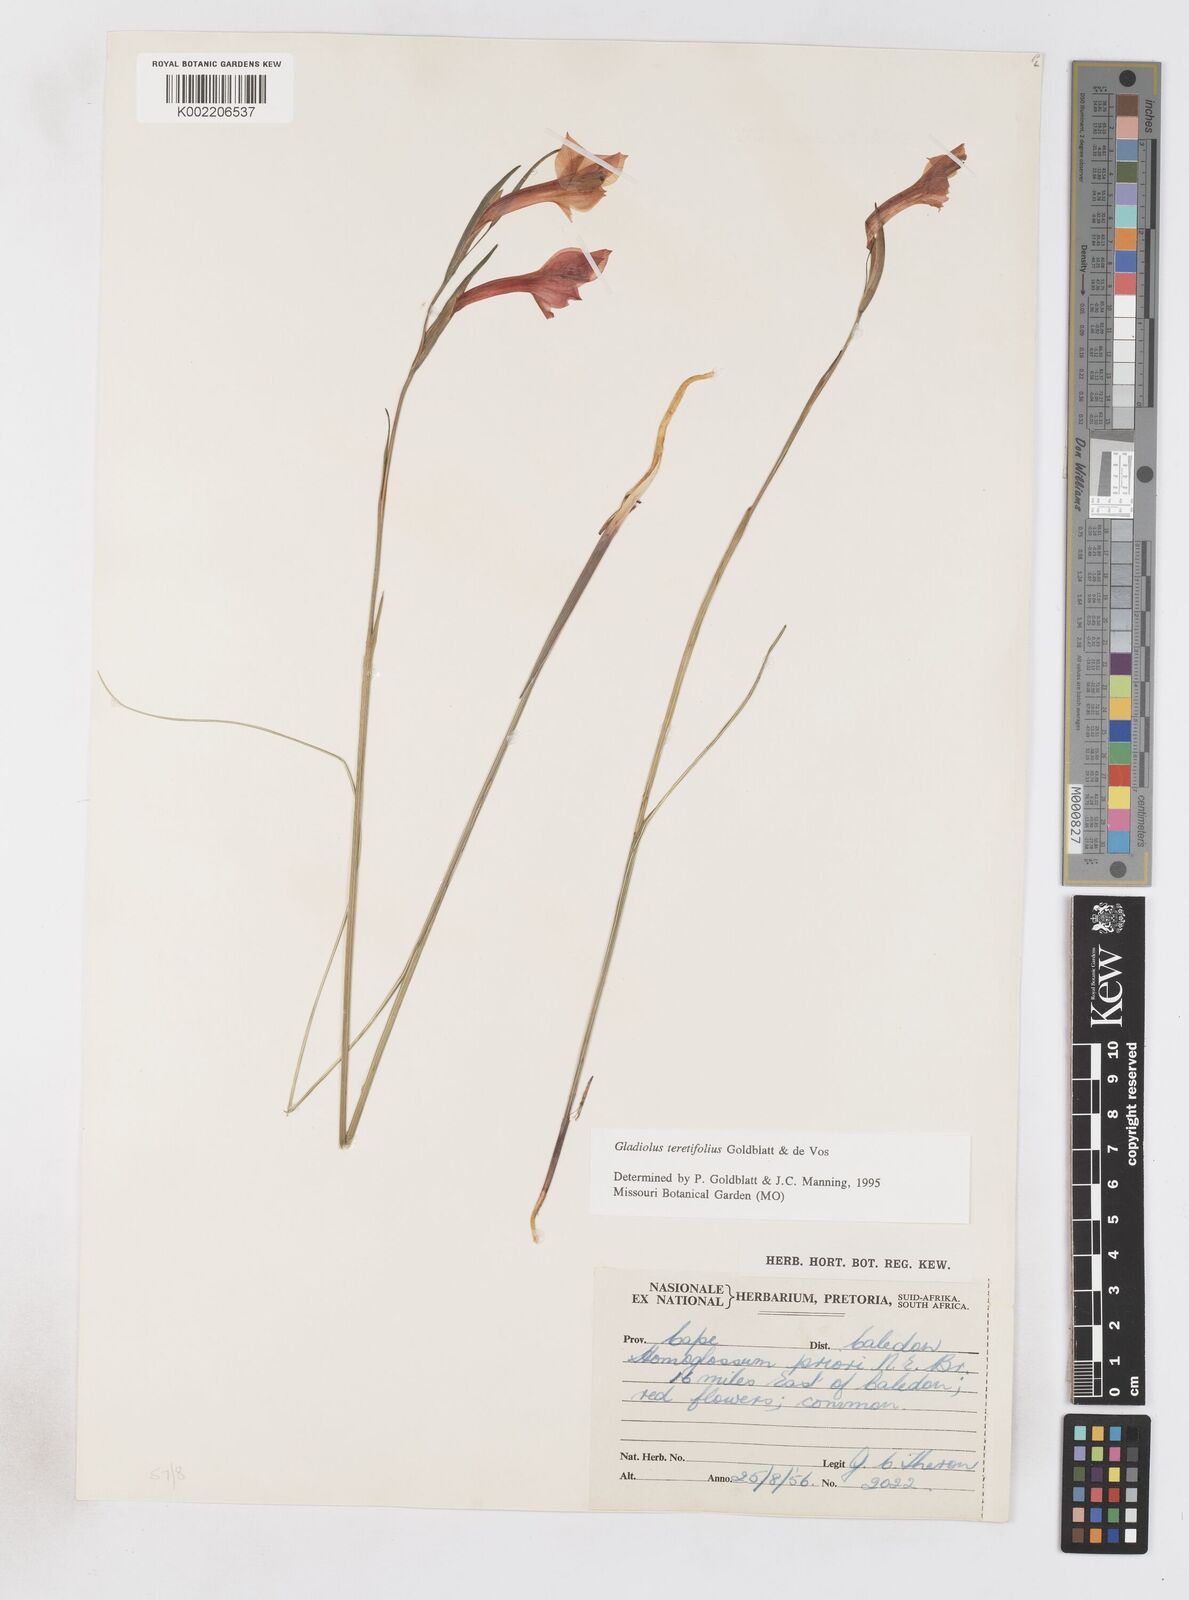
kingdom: Plantae
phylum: Tracheophyta
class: Liliopsida
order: Asparagales
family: Iridaceae
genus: Gladiolus
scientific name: Gladiolus involutus
